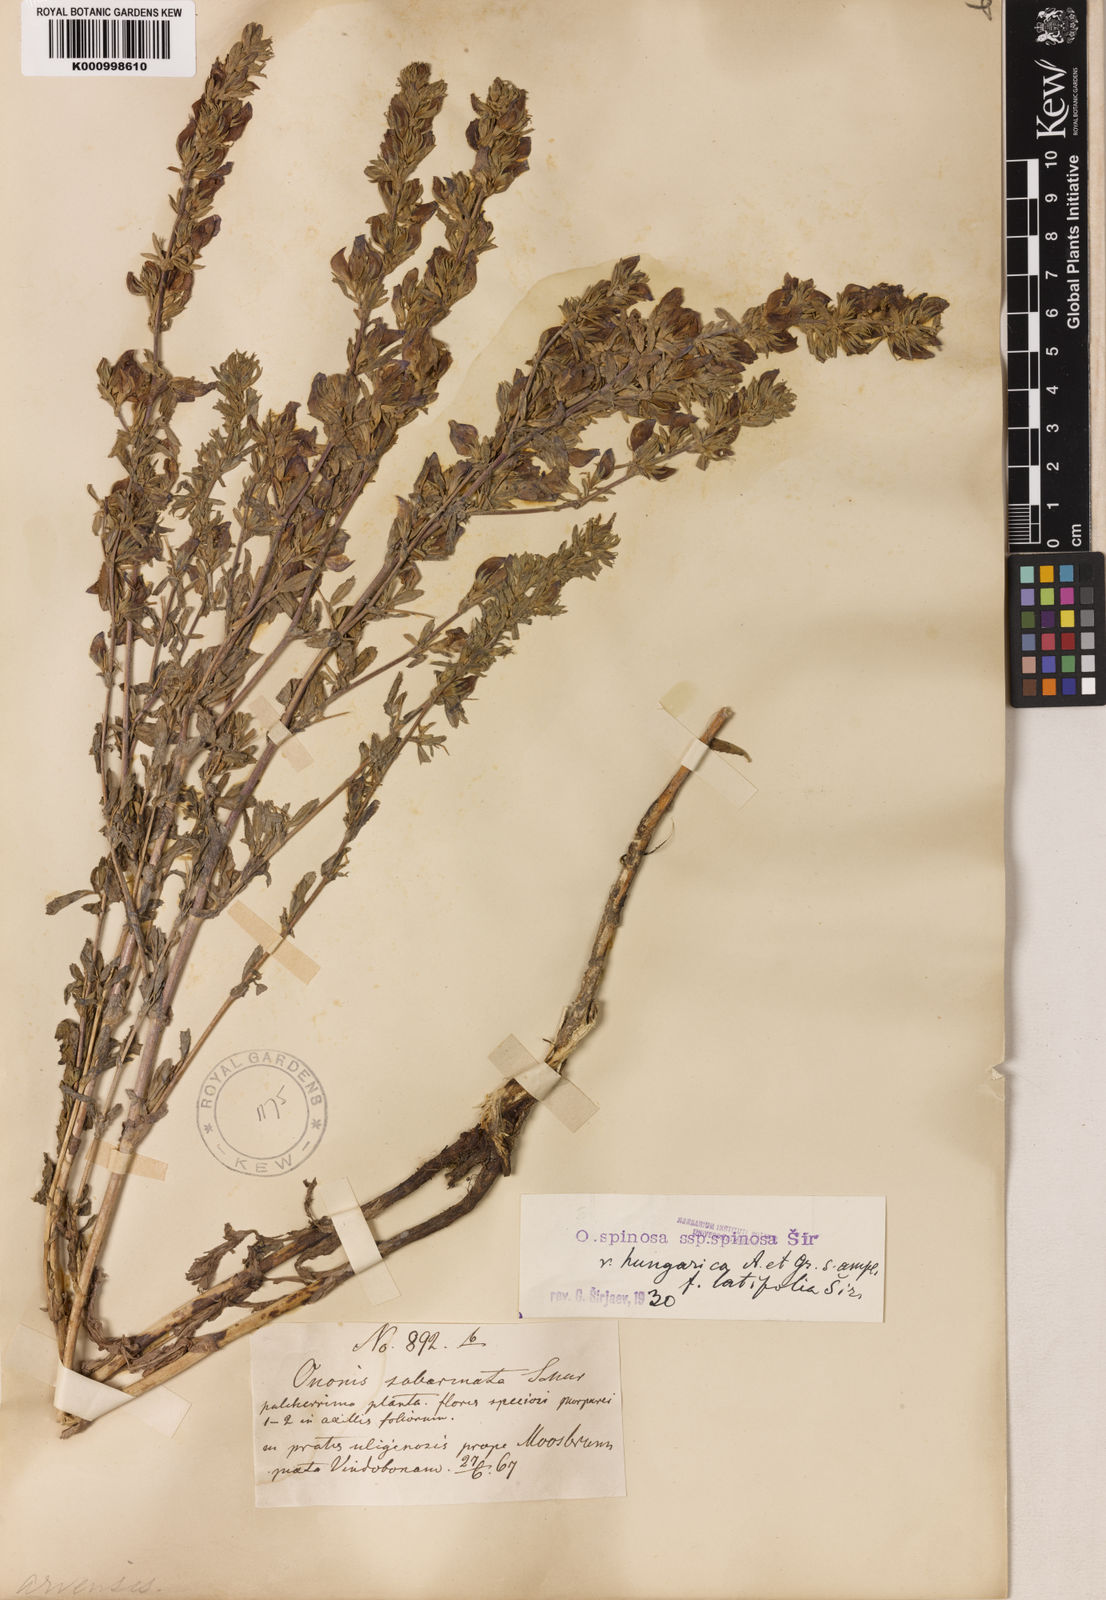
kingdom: Plantae
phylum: Tracheophyta
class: Magnoliopsida
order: Fabales
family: Fabaceae
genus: Ononis
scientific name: Ononis spinosa
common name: Spiny restharrow
